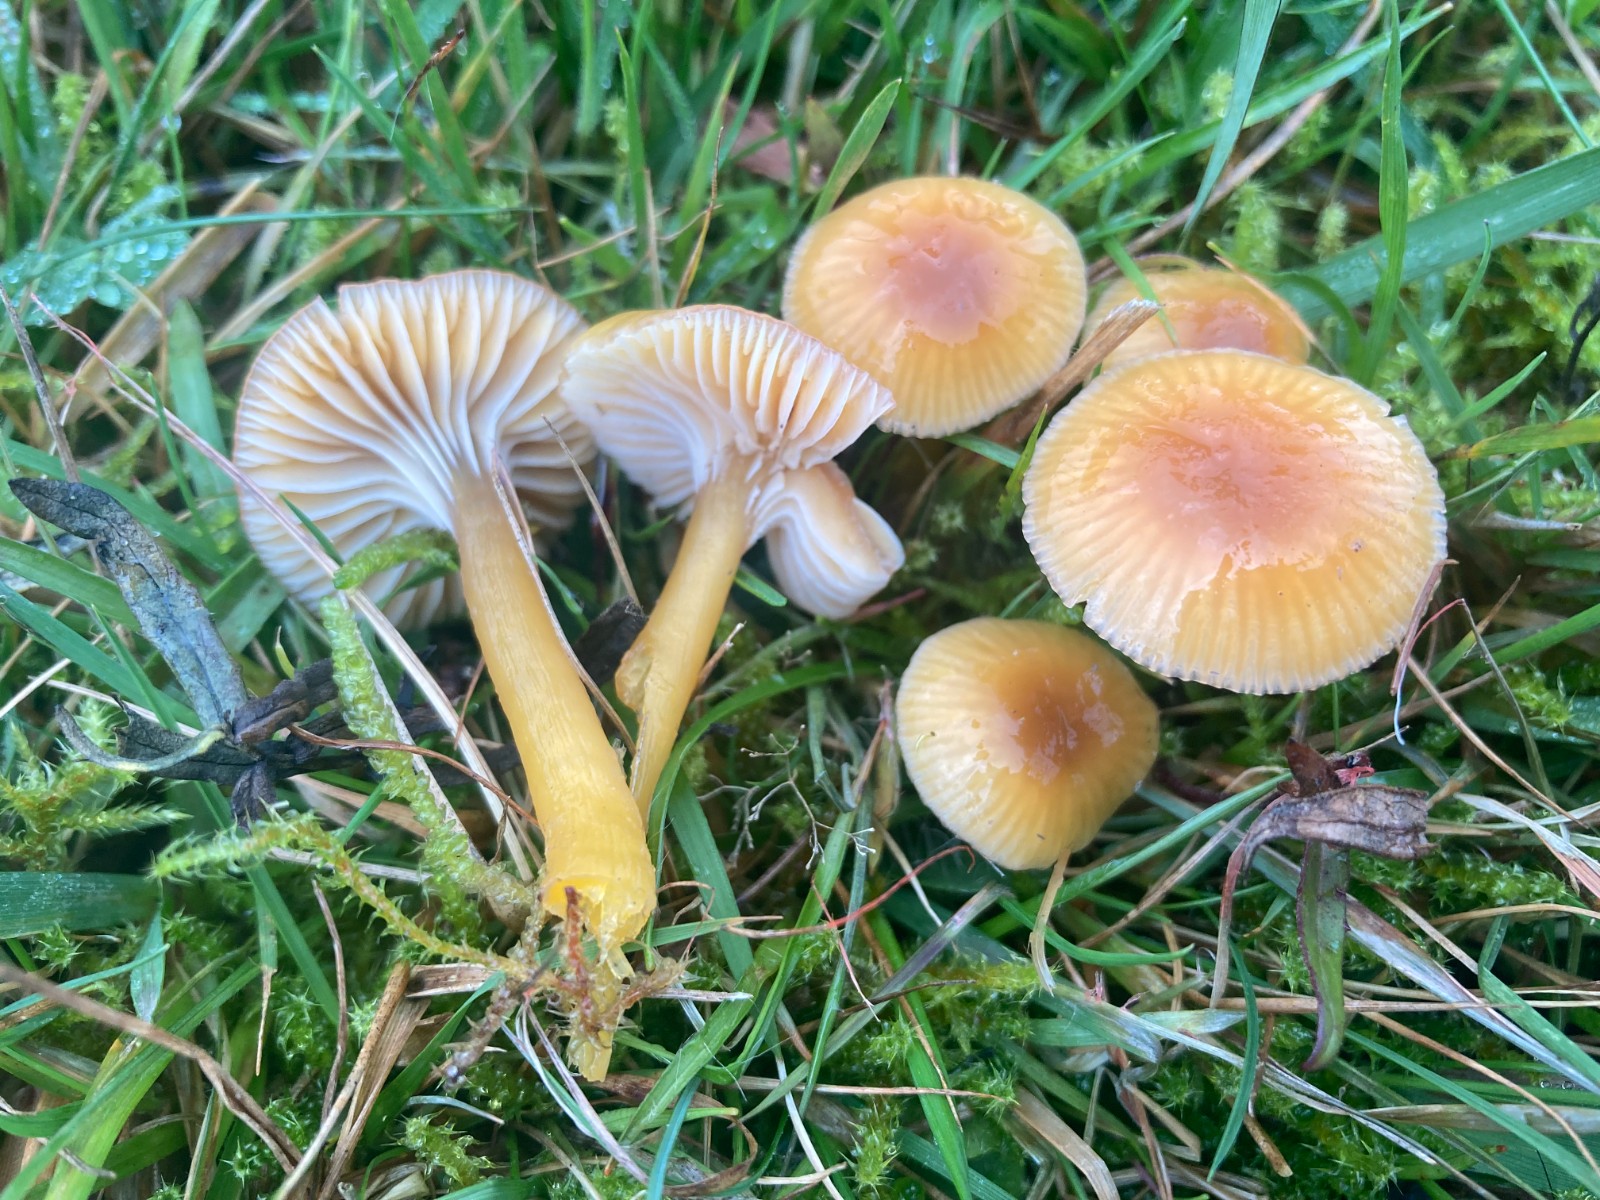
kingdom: Fungi
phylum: Basidiomycota
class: Agaricomycetes
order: Agaricales
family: Hygrophoraceae
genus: Gliophorus
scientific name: Gliophorus laetus
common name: brusk-vokshat
